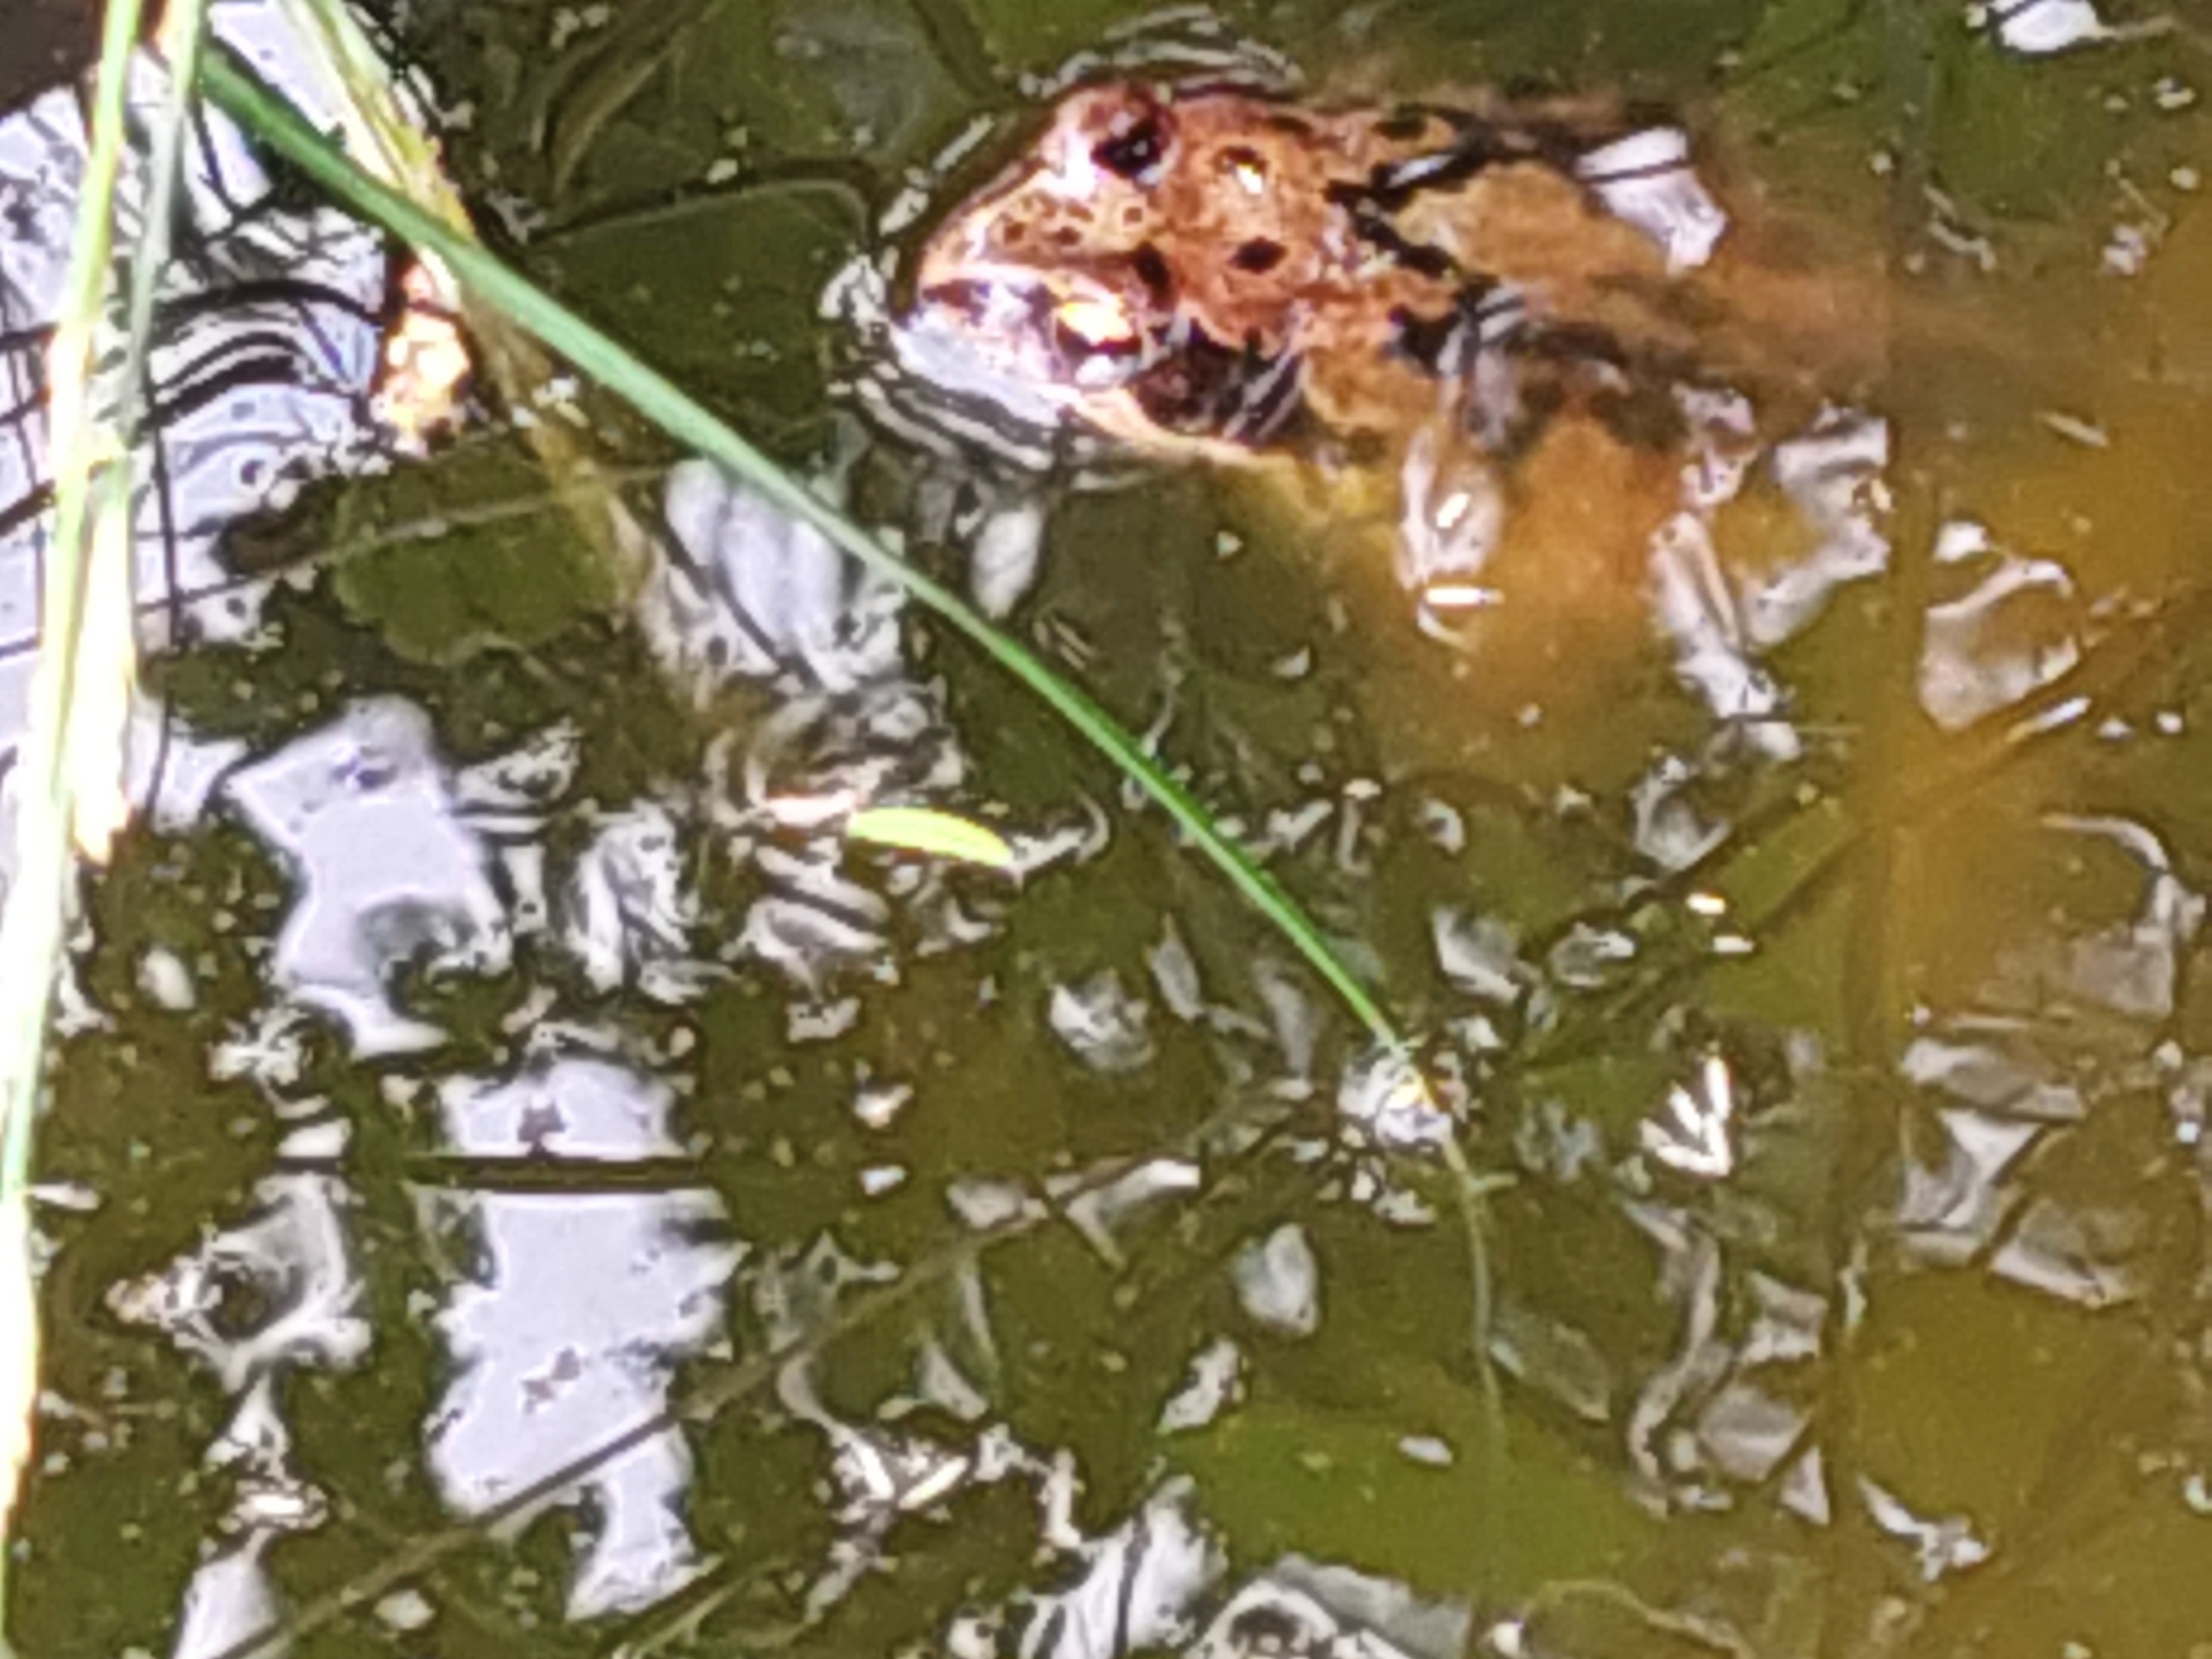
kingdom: Animalia
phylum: Chordata
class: Amphibia
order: Anura
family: Ranidae
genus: Rana
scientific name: Rana temporaria
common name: Butsnudet frø
